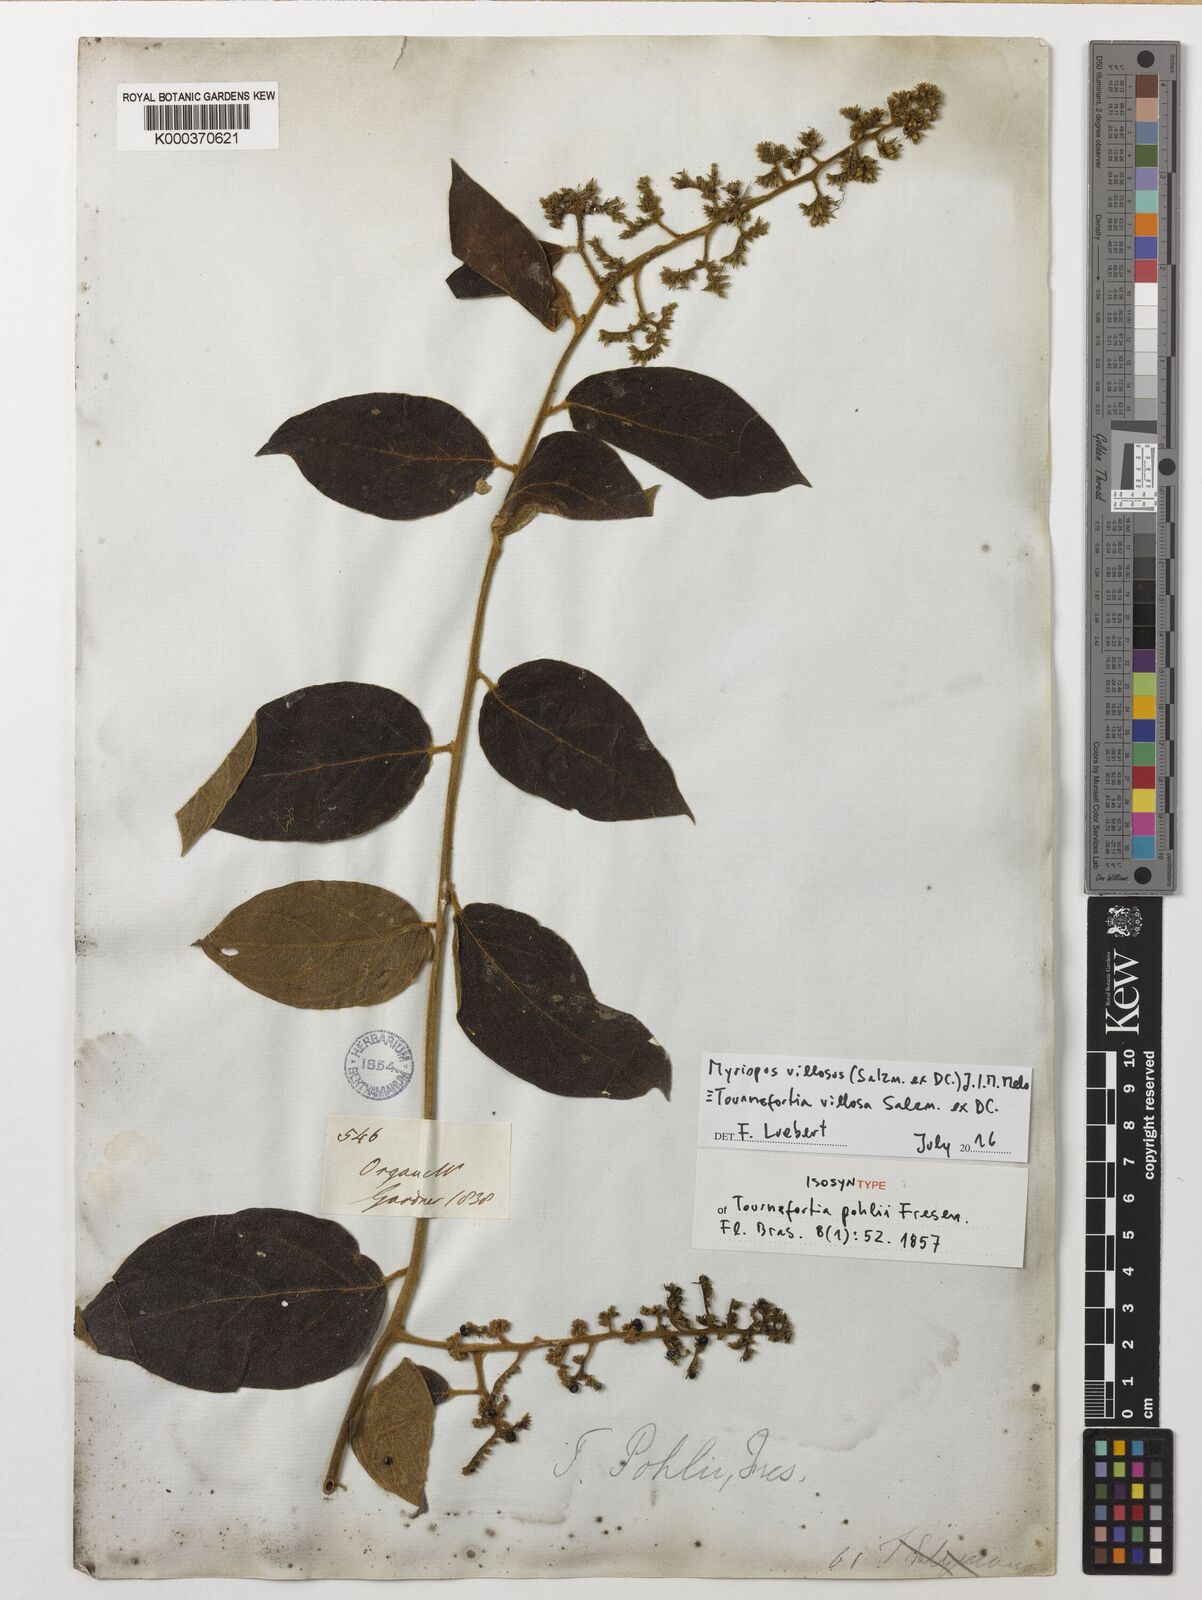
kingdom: Plantae
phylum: Tracheophyta
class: Magnoliopsida
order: Boraginales
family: Heliotropiaceae
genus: Tournefortia
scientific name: Tournefortia villosa
